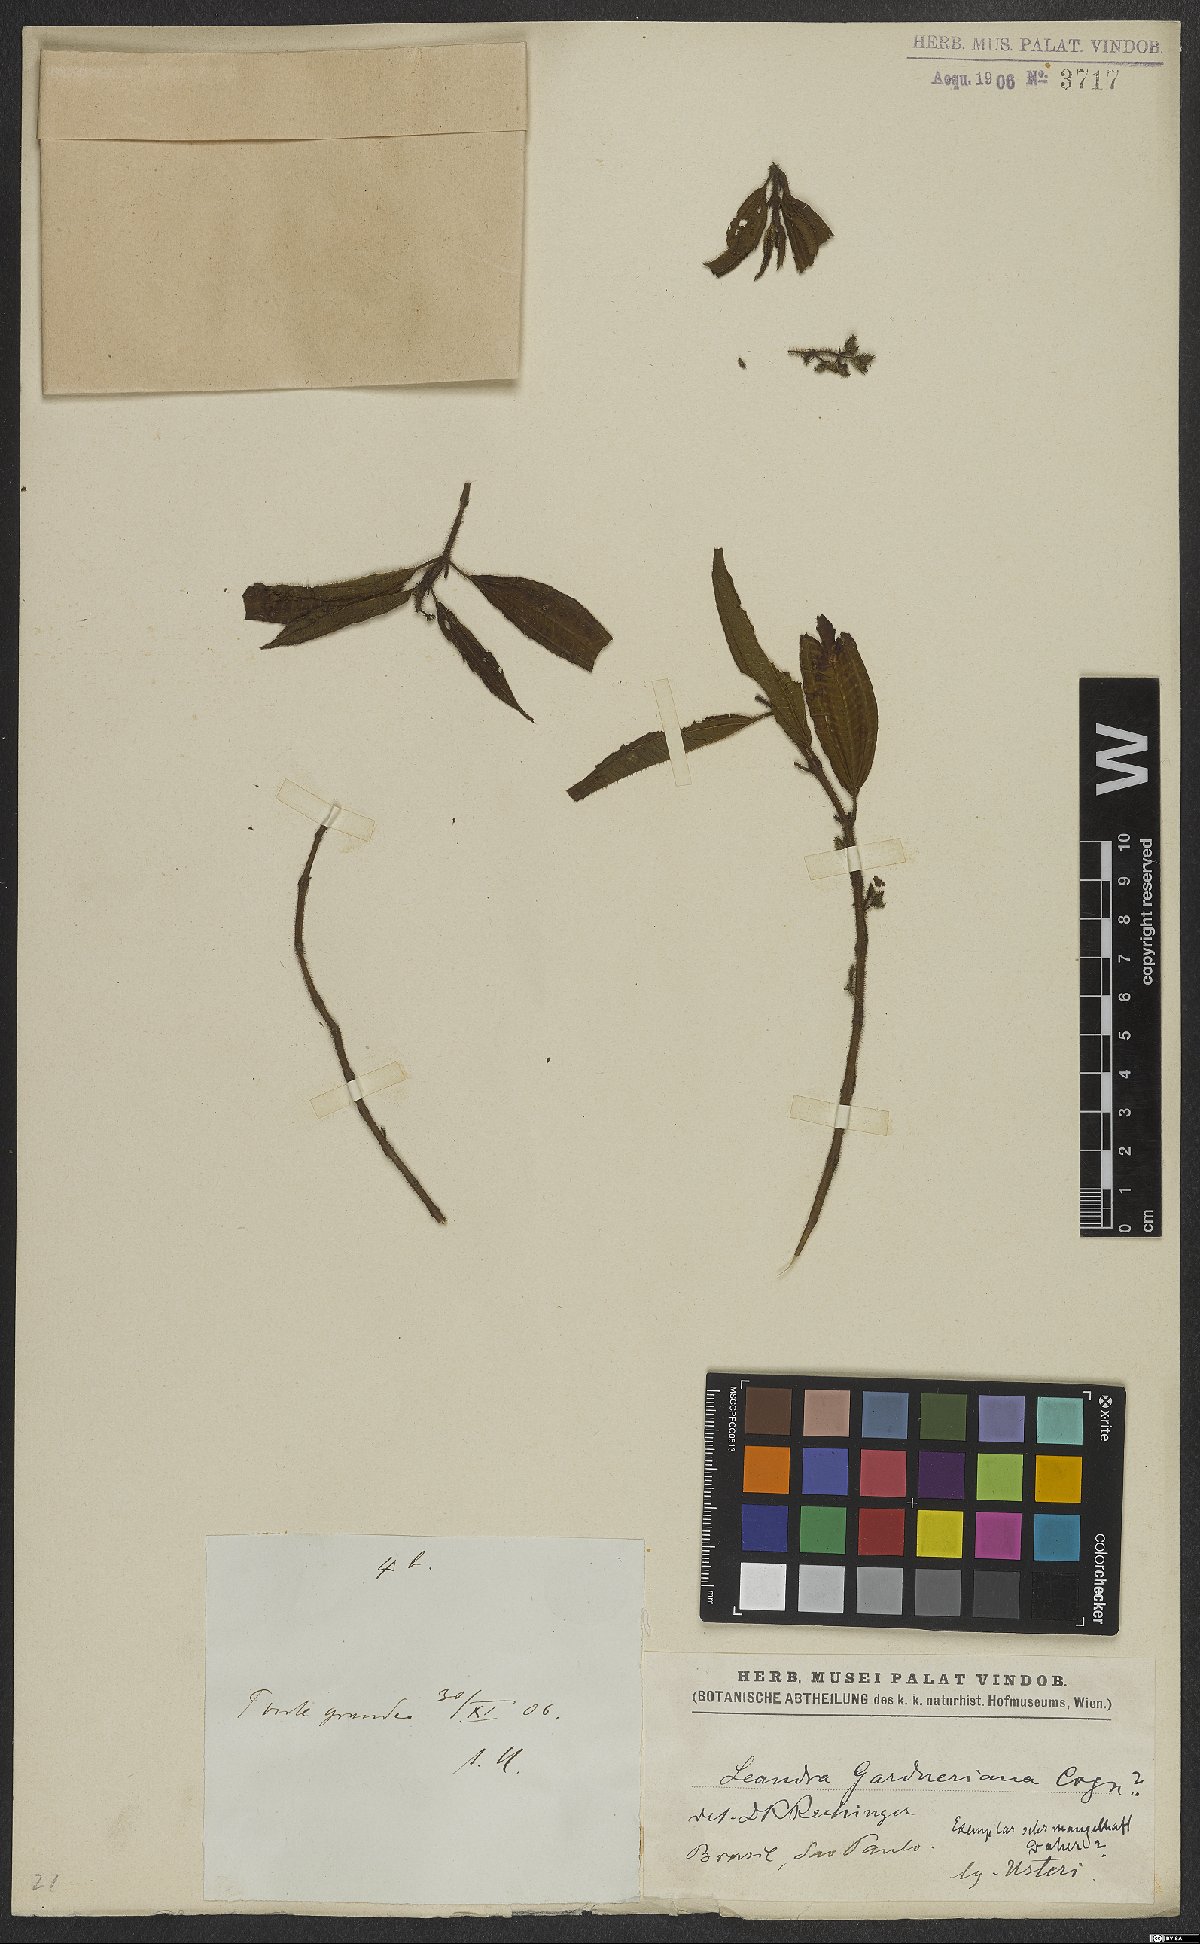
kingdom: Plantae
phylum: Tracheophyta
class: Magnoliopsida
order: Myrtales
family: Melastomataceae
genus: Miconia
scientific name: Miconia xantholasia
